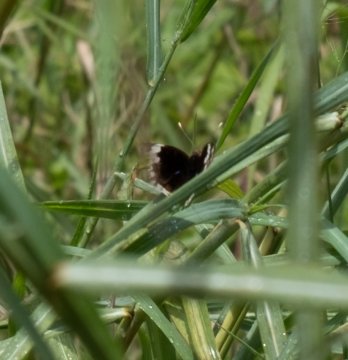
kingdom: Animalia
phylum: Arthropoda
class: Insecta
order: Lepidoptera
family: Lycaenidae
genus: Polyommatus
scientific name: Polyommatus eros
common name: Blue Argus
